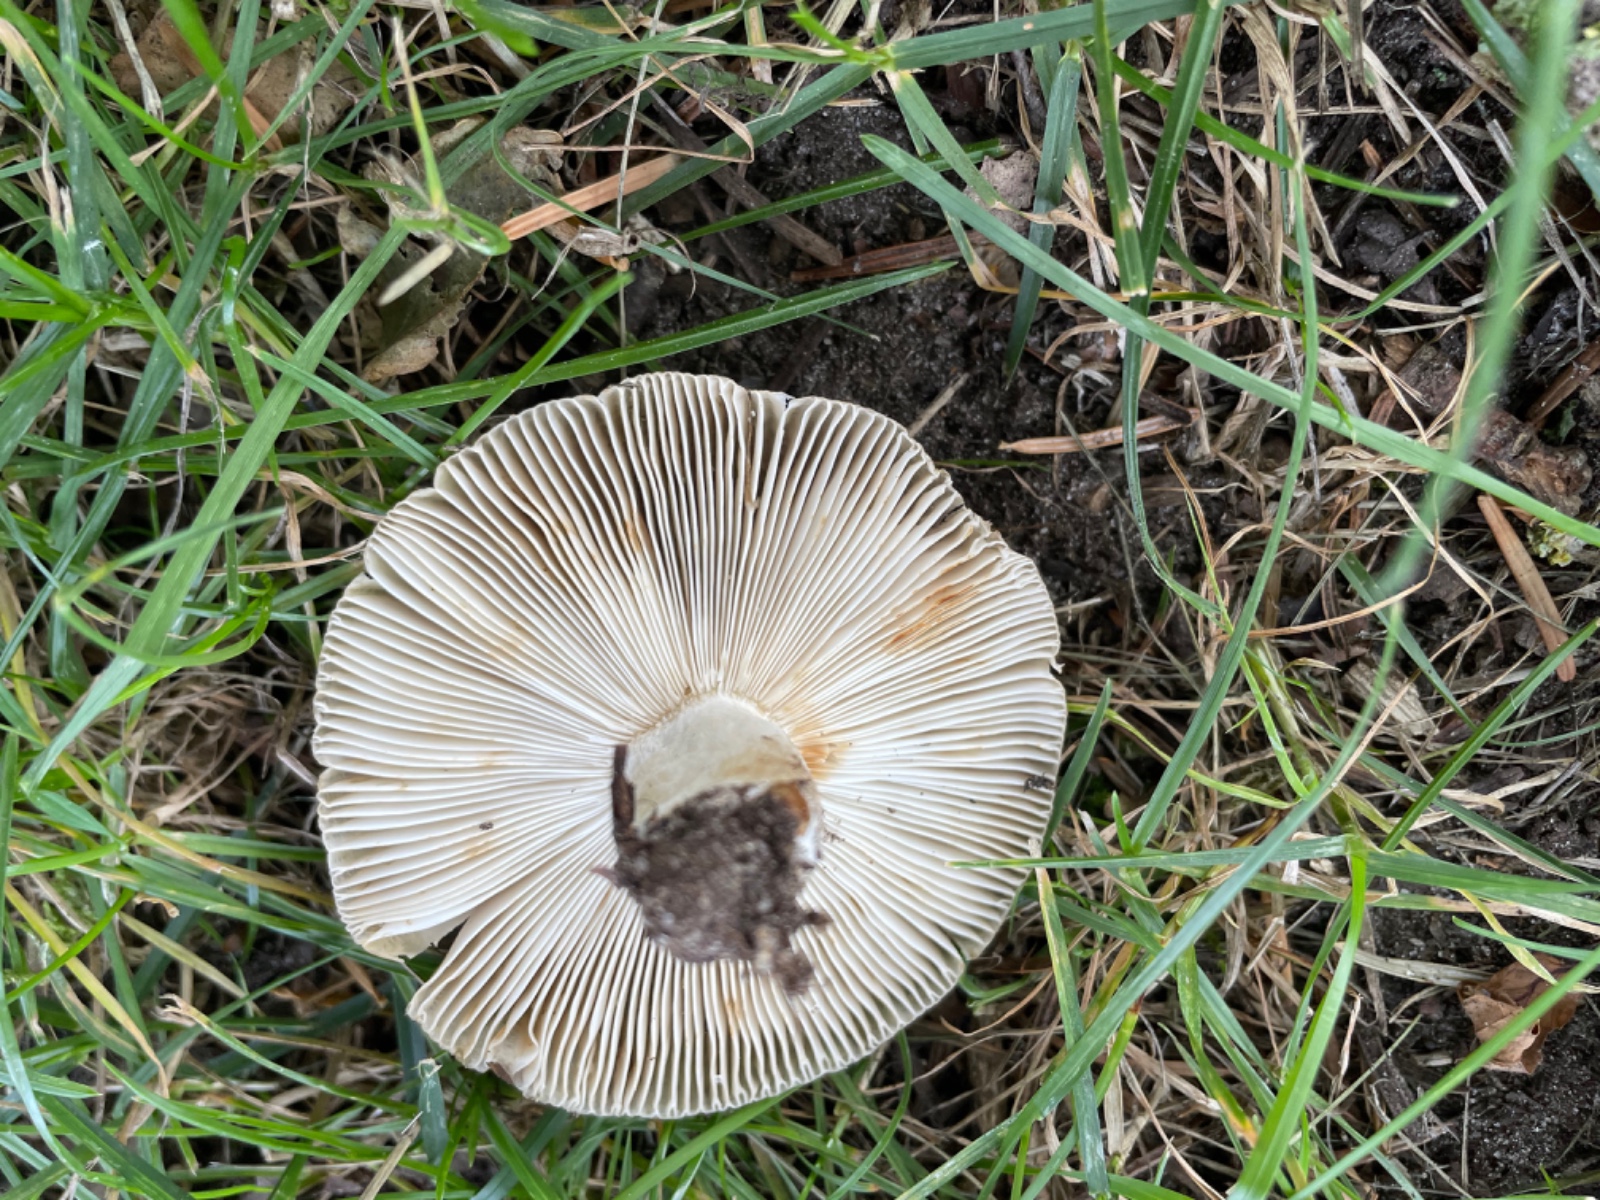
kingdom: Fungi
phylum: Basidiomycota
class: Agaricomycetes
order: Russulales
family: Russulaceae
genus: Russula
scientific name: Russula amoenolens
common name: skarp kam-skørhat
